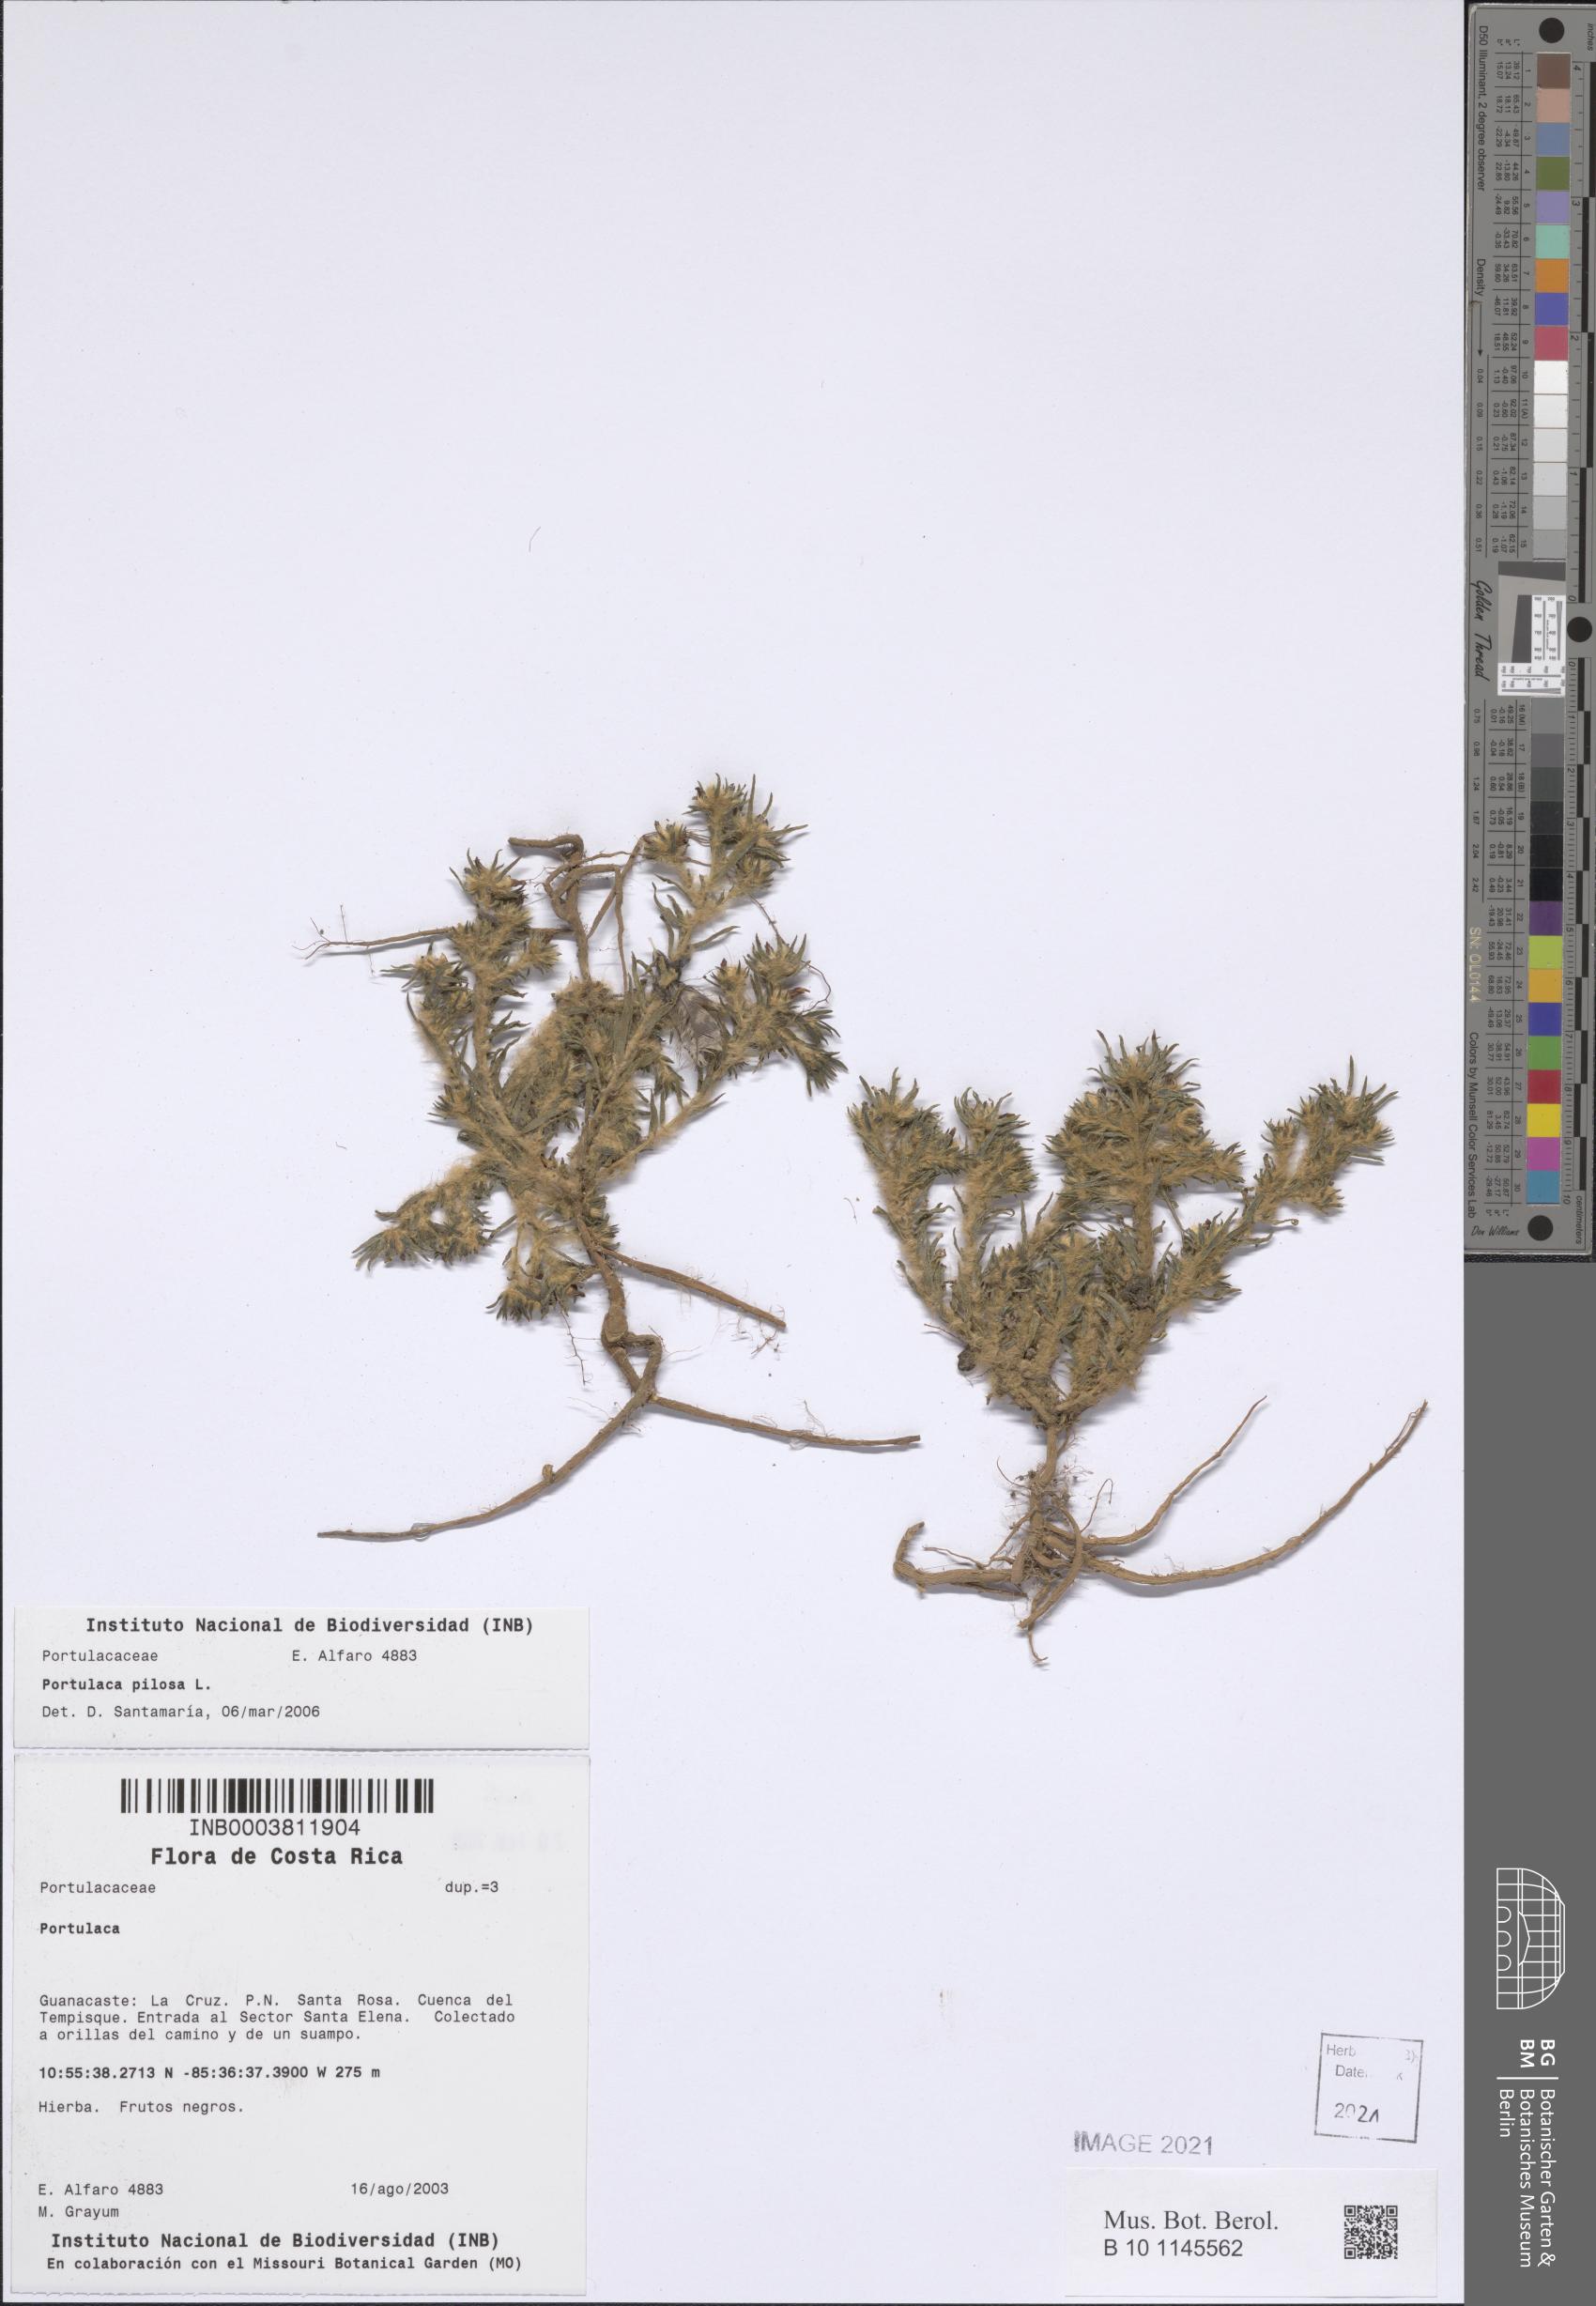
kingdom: Plantae
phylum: Tracheophyta
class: Magnoliopsida
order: Caryophyllales
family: Portulacaceae
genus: Portulaca
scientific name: Portulaca pilosa
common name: Kiss me quick
